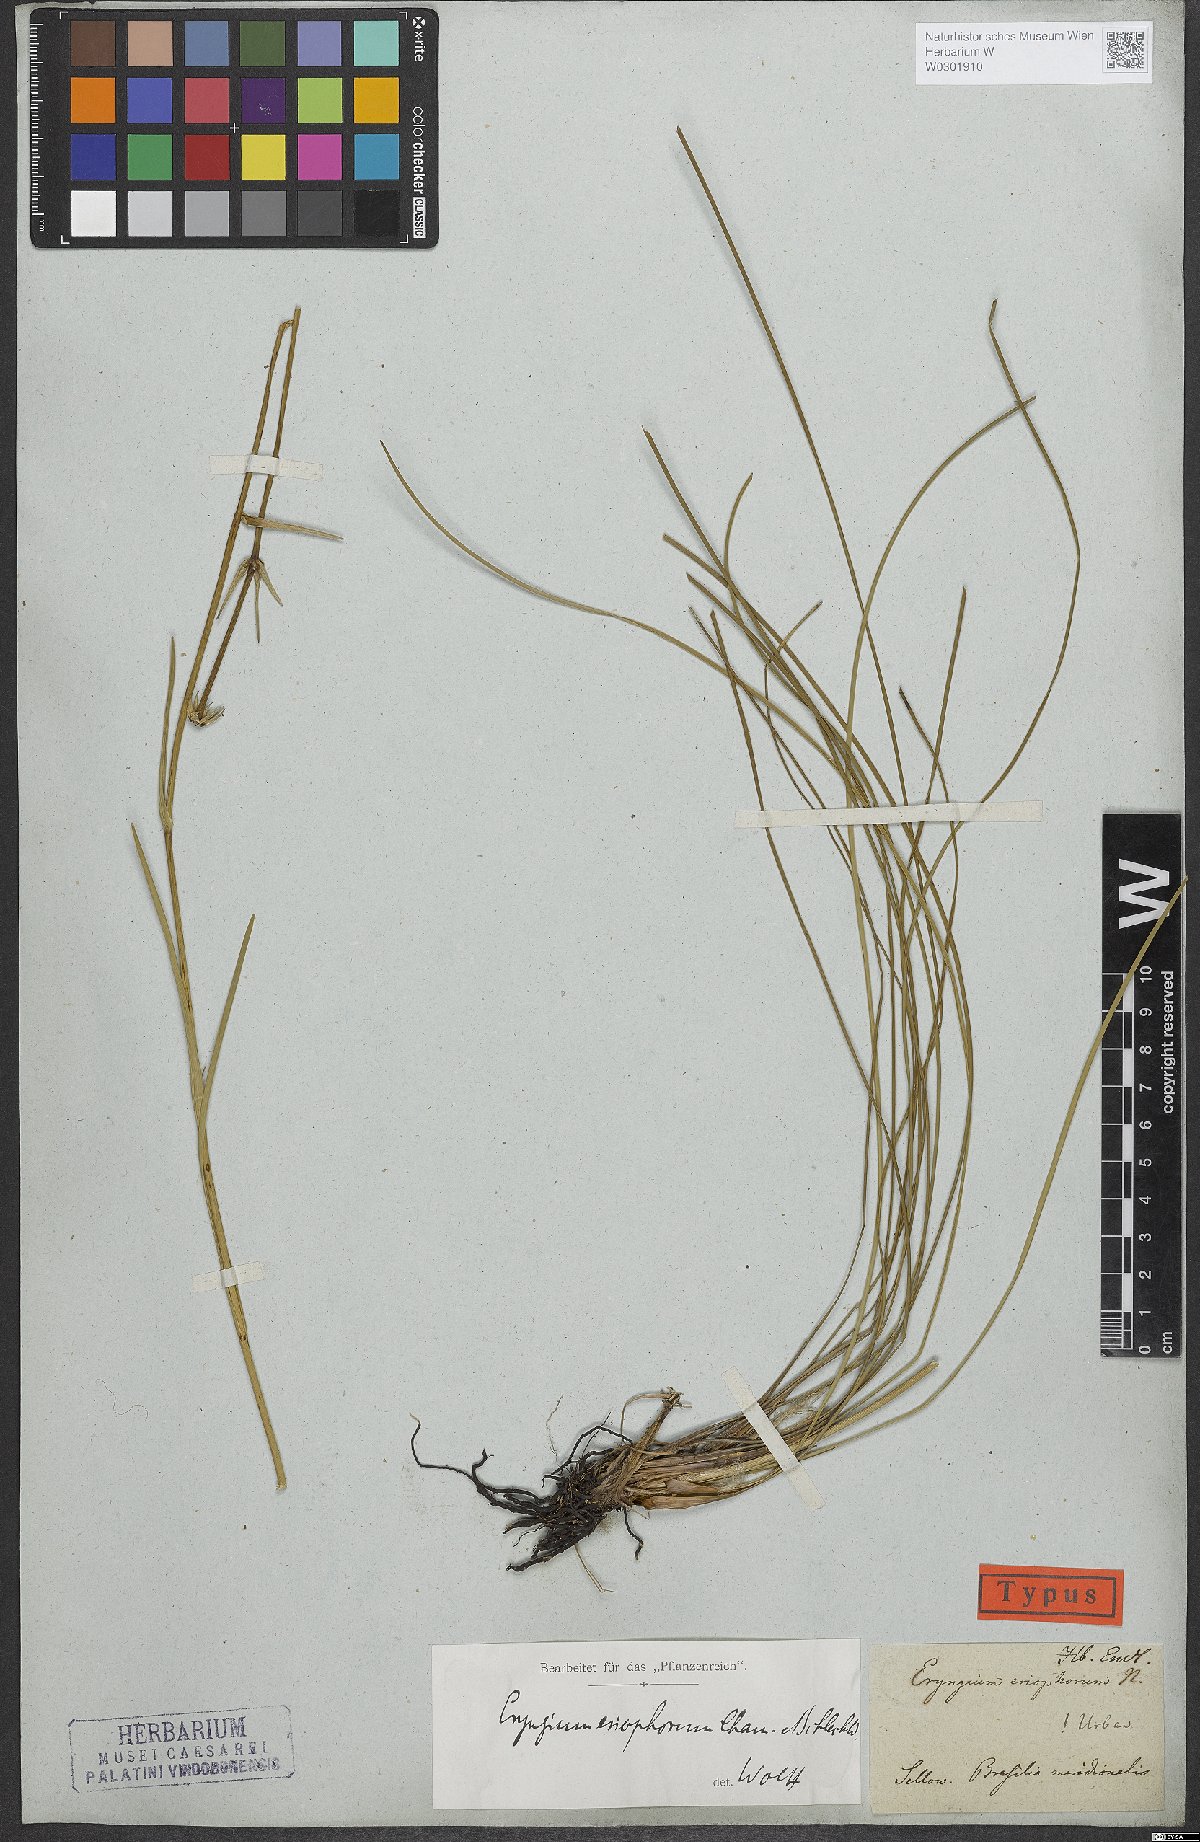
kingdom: Plantae
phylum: Tracheophyta
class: Magnoliopsida
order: Apiales
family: Apiaceae
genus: Eryngium
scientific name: Eryngium eriophorum
